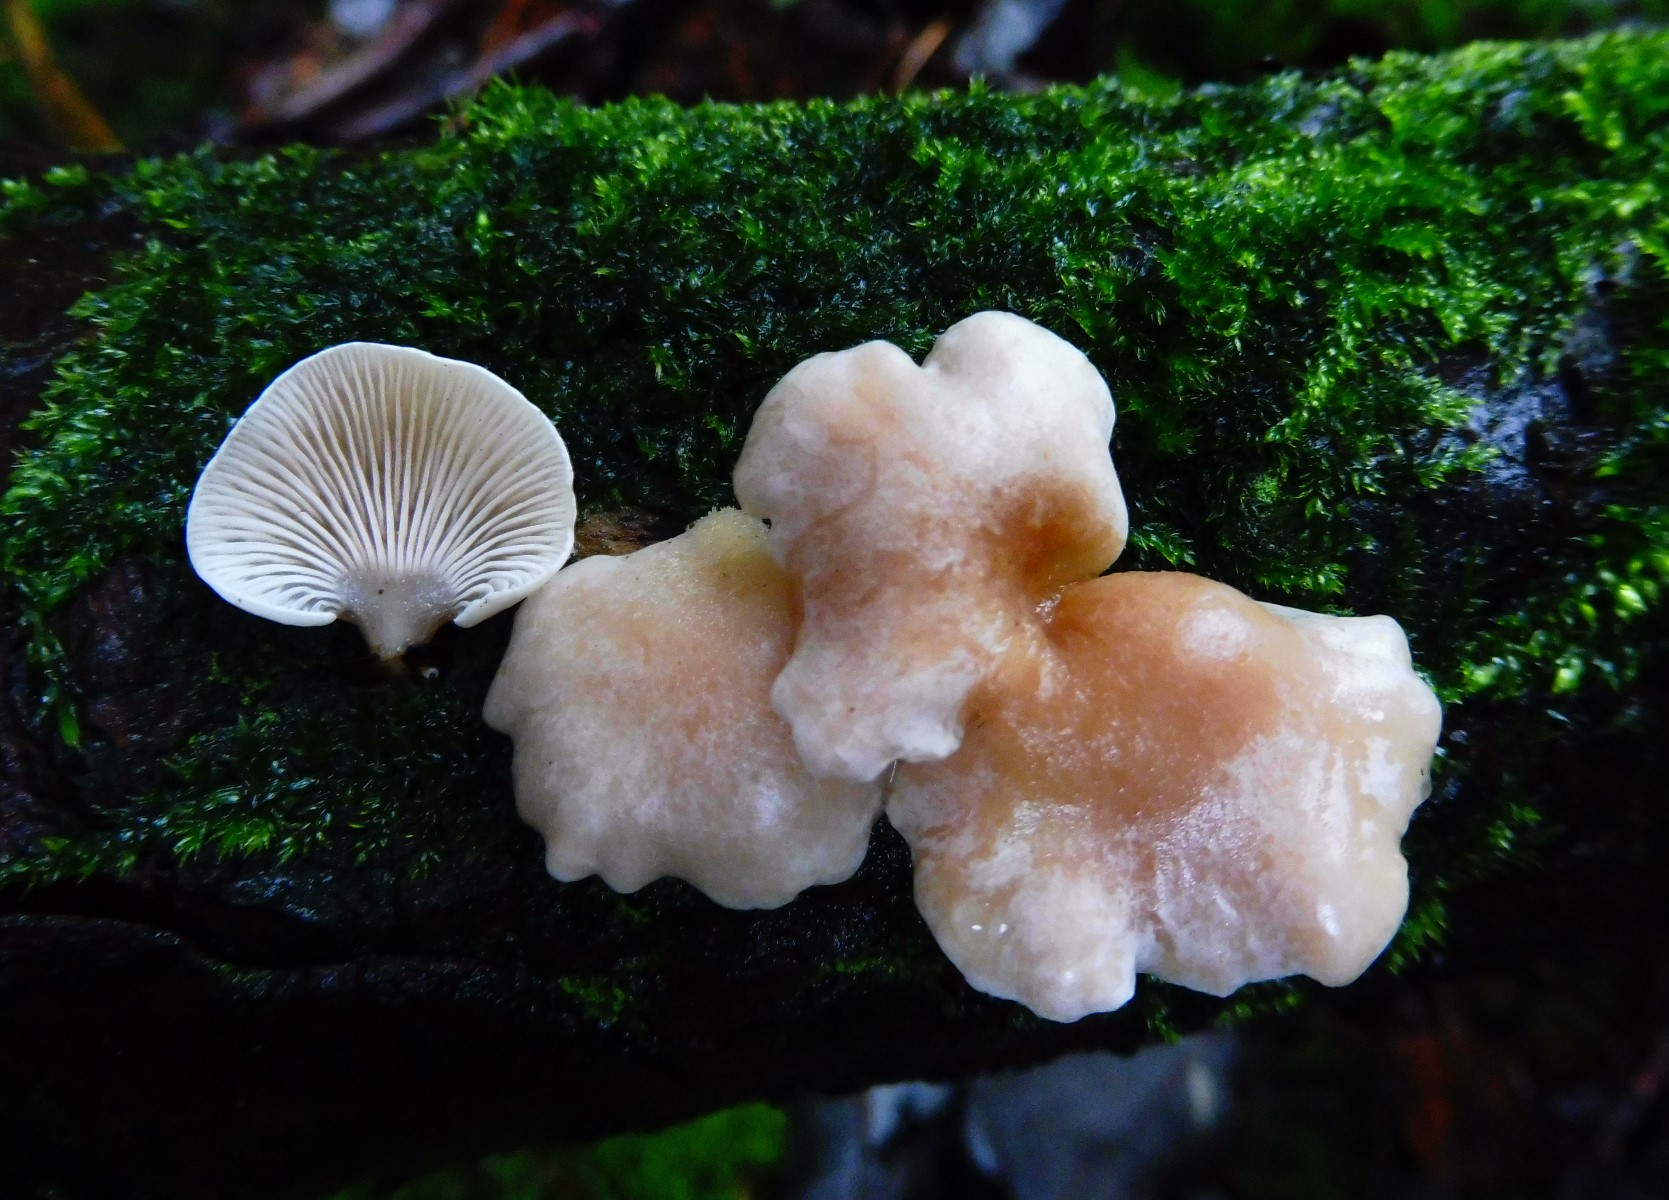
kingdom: Fungi
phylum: Basidiomycota
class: Agaricomycetes
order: Agaricales
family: Mycenaceae
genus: Panellus
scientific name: Panellus mitis
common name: mild epaulethat
